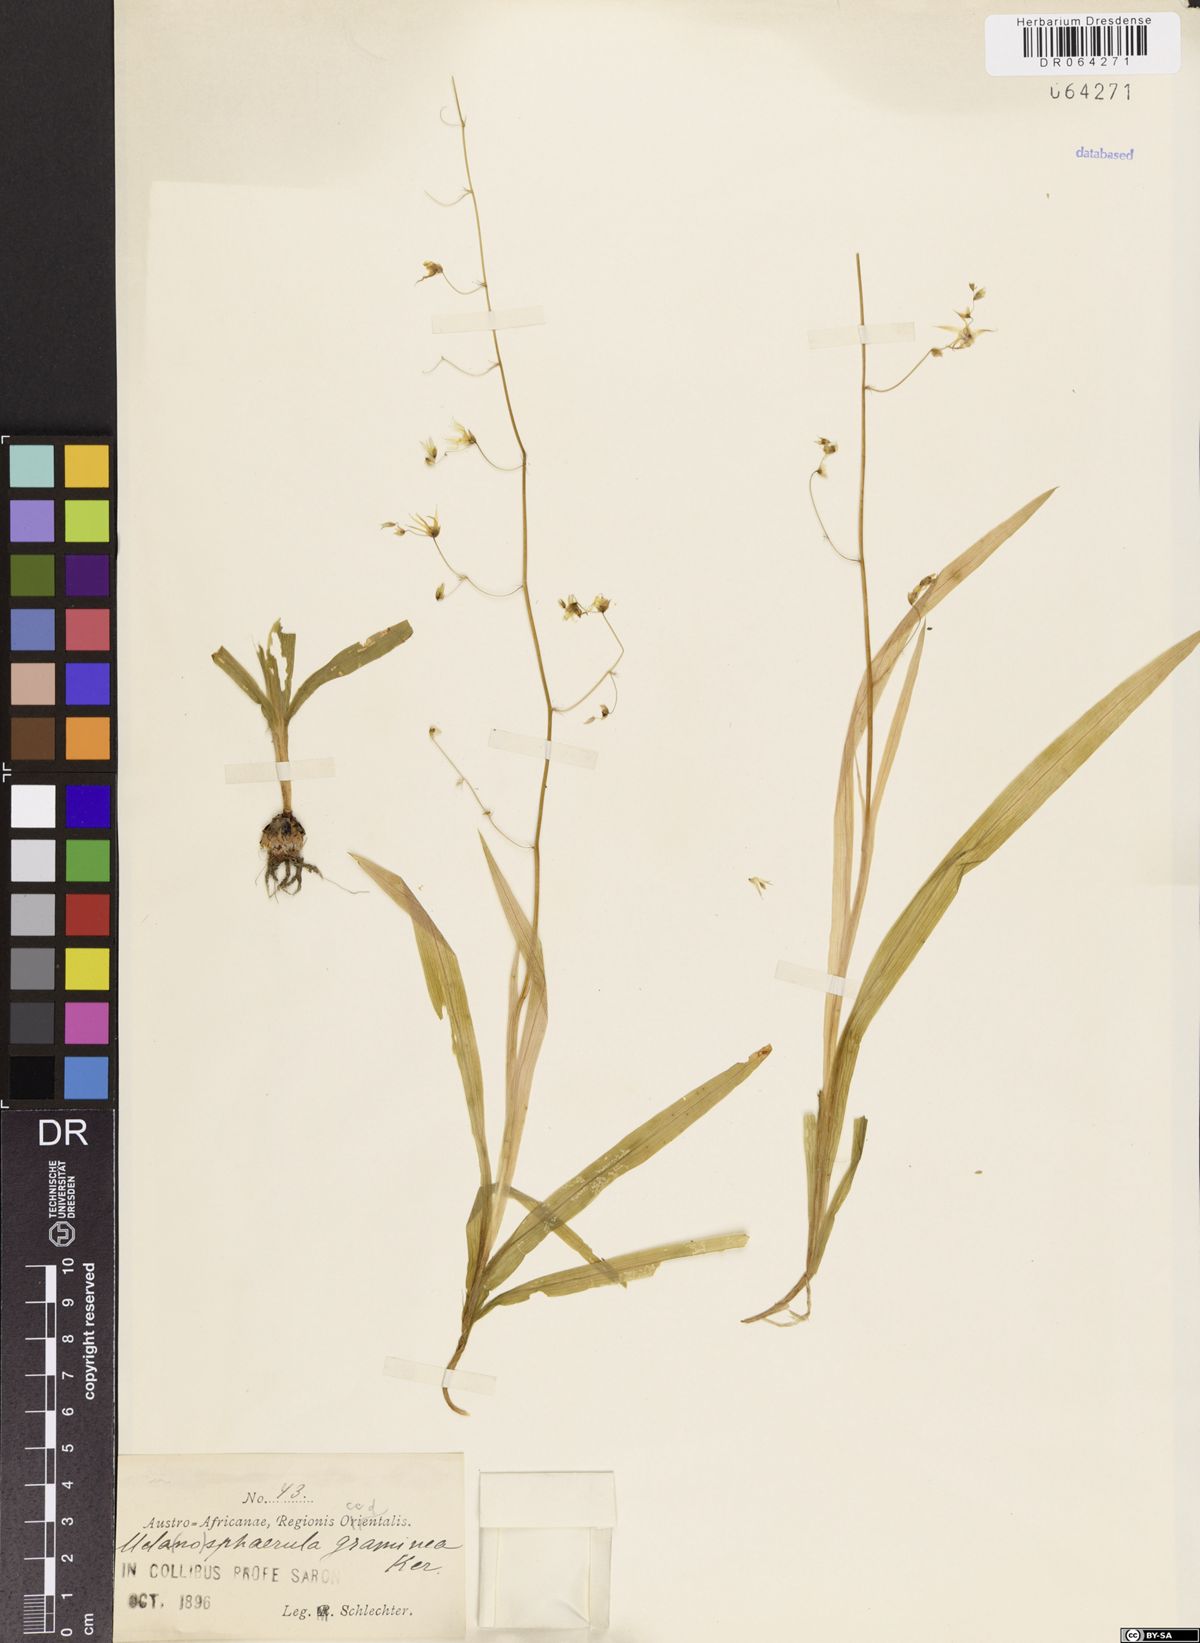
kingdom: Plantae
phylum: Tracheophyta
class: Liliopsida
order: Asparagales
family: Iridaceae
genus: Melasphaerula
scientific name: Melasphaerula graminea
